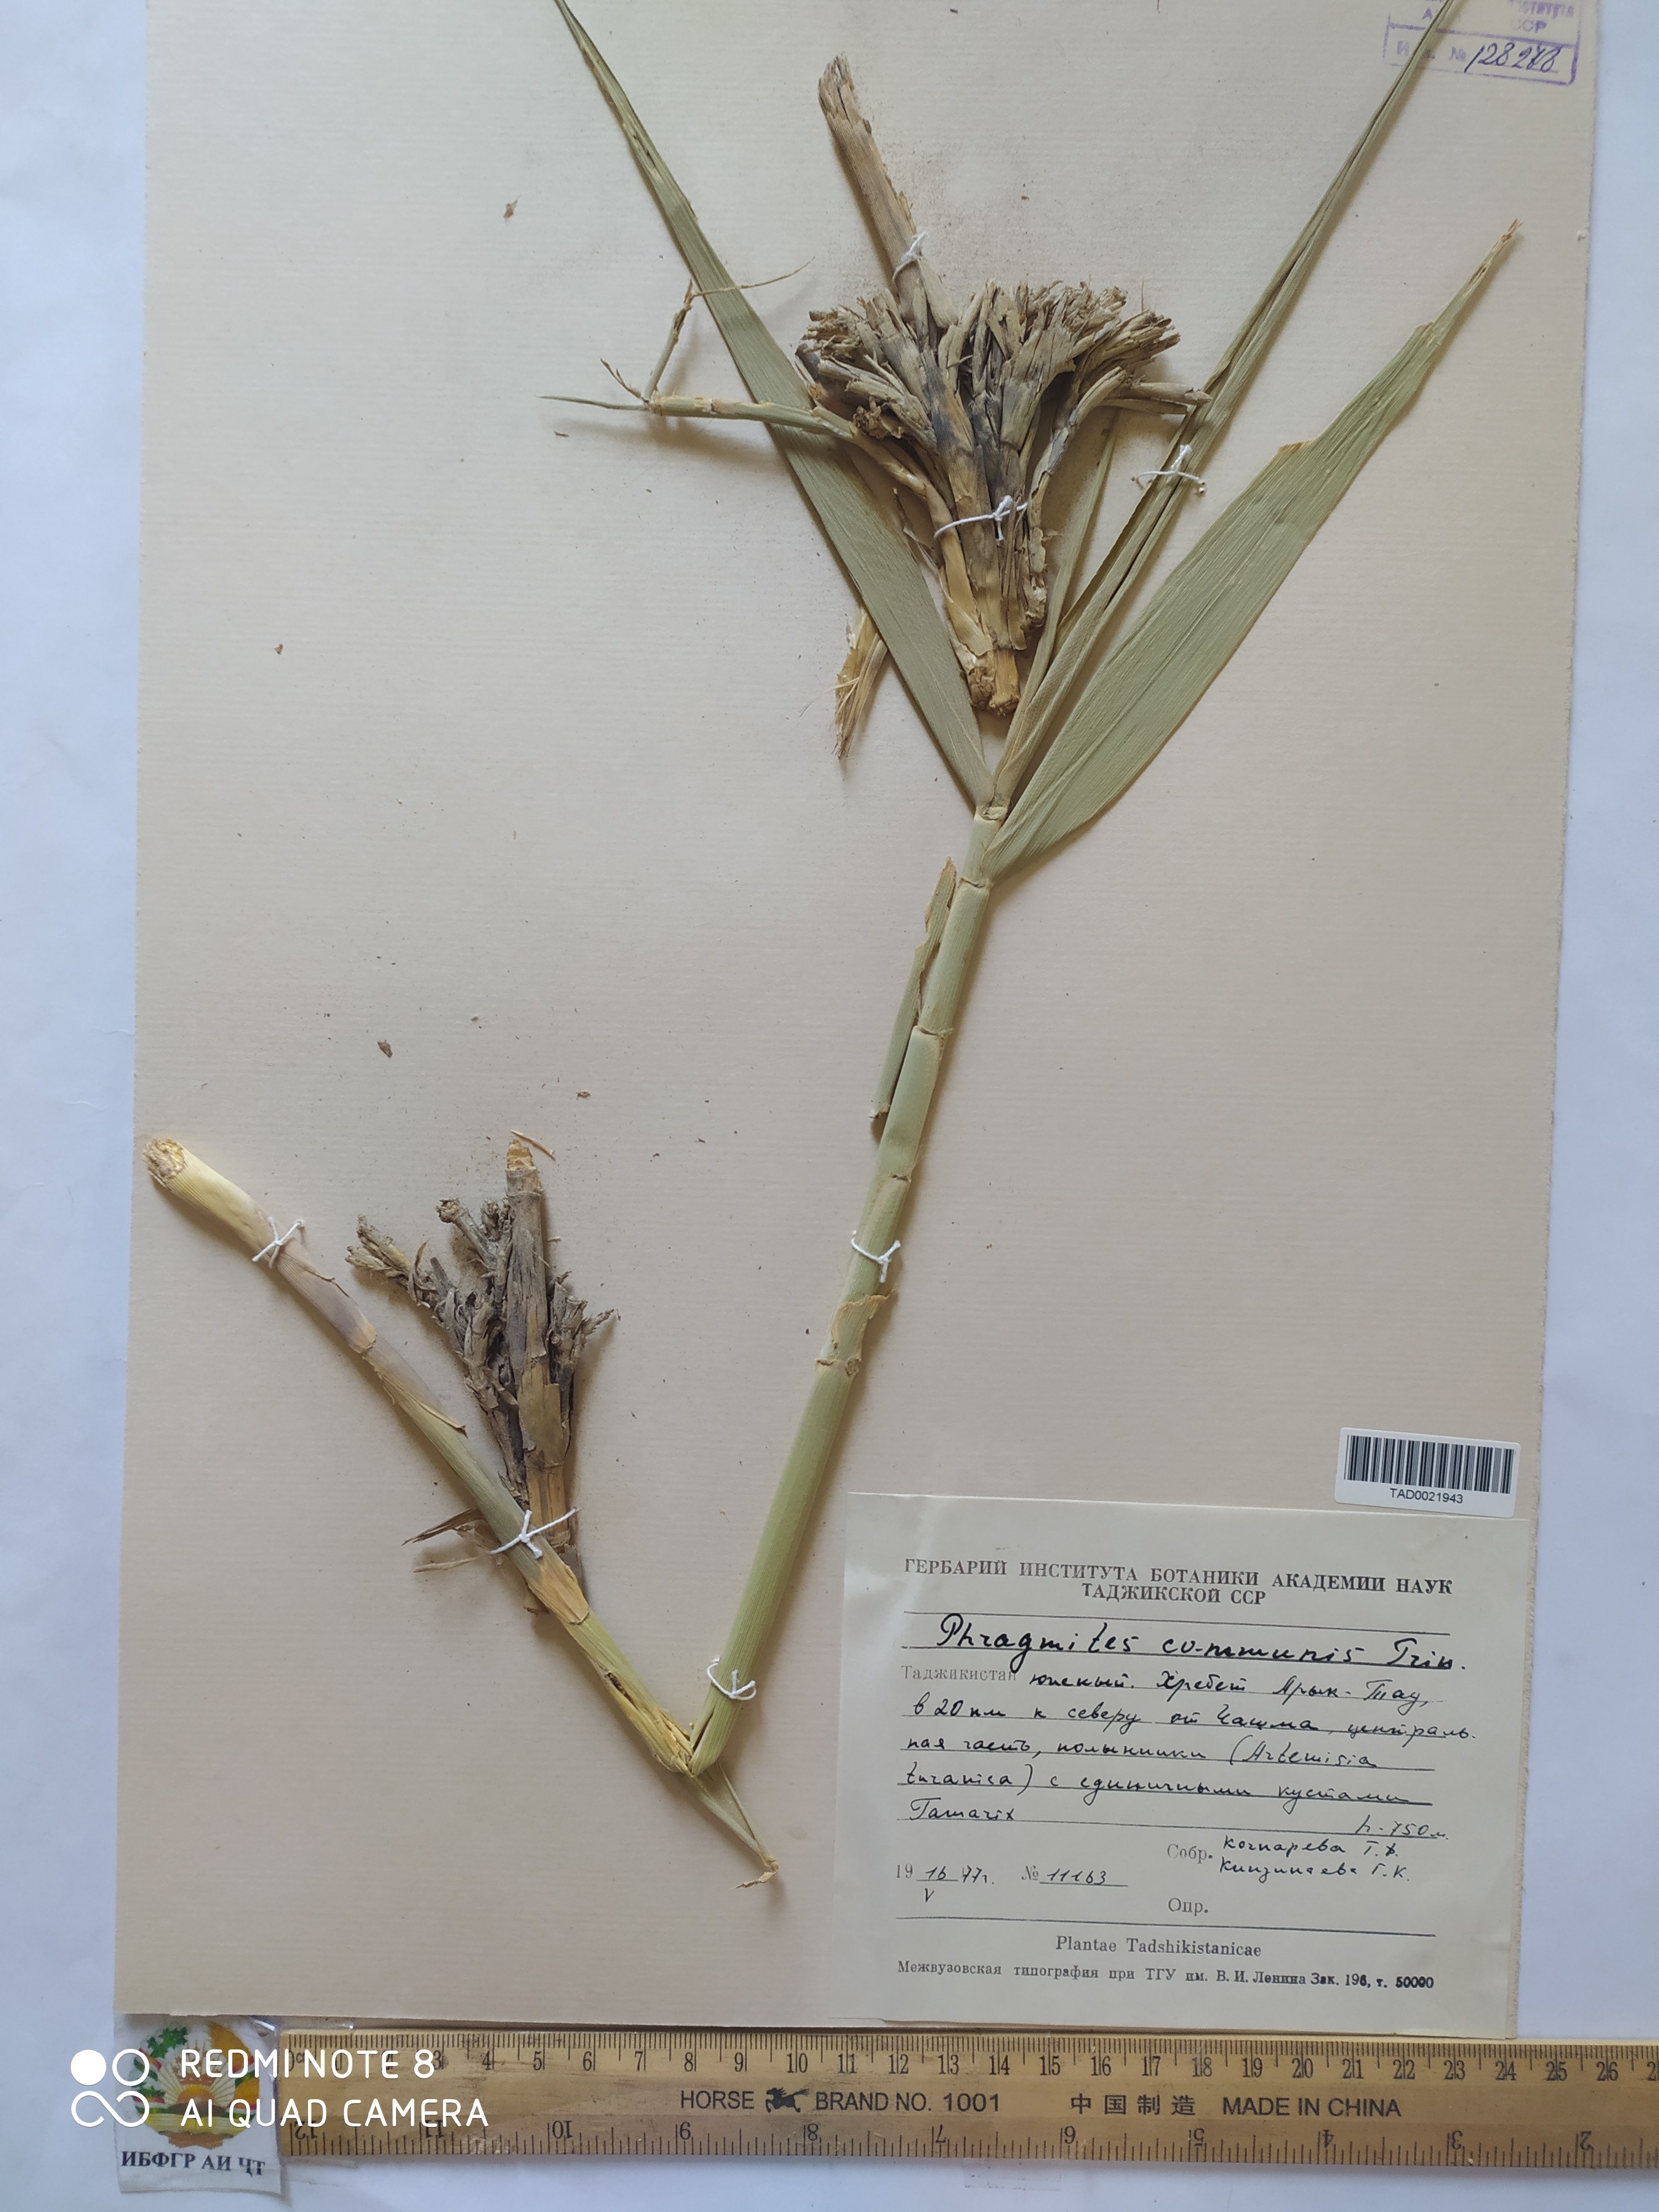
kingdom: Plantae
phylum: Tracheophyta
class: Liliopsida
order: Poales
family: Poaceae
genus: Phragmites
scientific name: Phragmites australis
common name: Common reed
